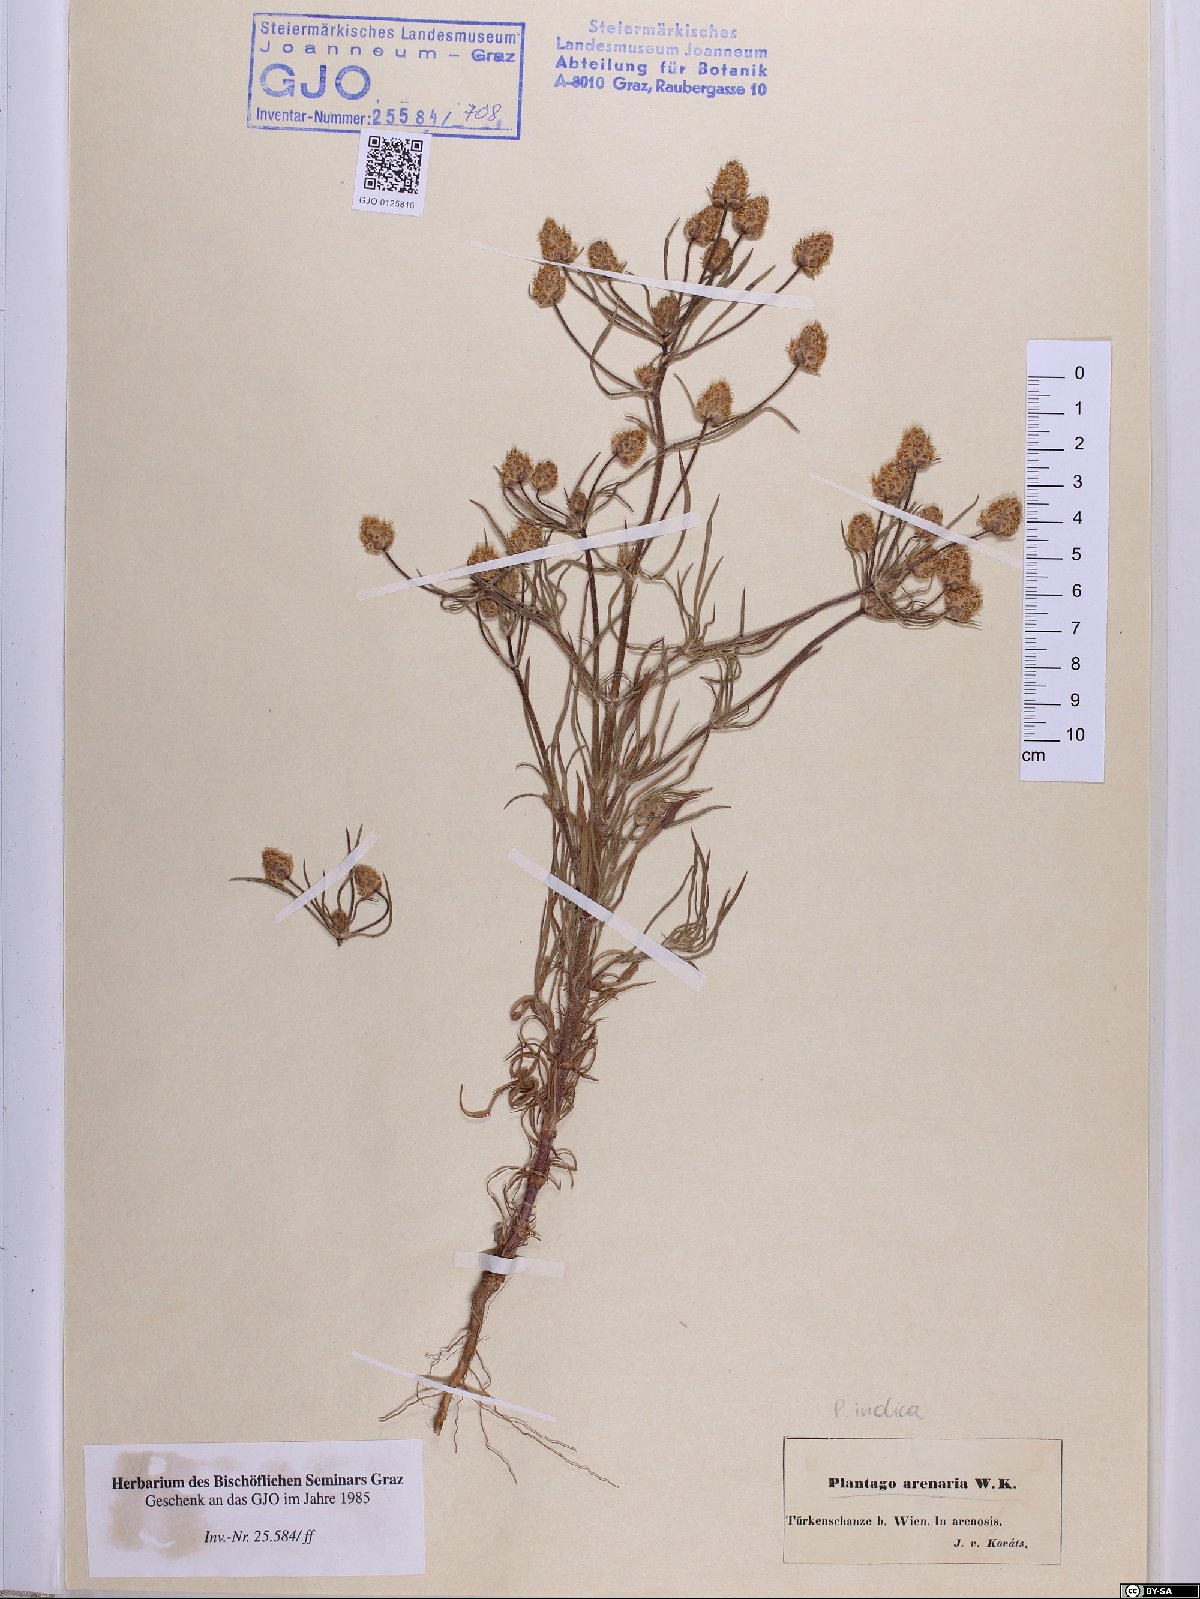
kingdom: Plantae
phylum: Tracheophyta
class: Magnoliopsida
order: Lamiales
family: Plantaginaceae
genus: Plantago
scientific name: Plantago arenaria
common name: Branched plantain
